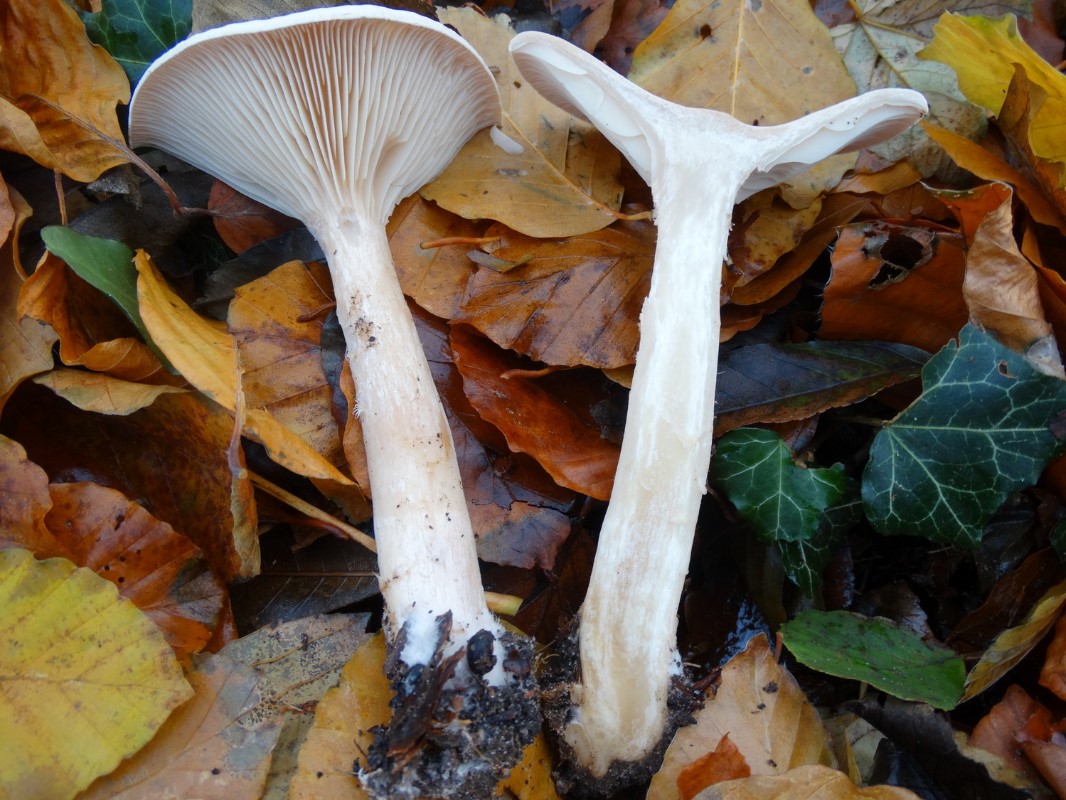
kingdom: Fungi
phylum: Basidiomycota
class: Agaricomycetes
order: Agaricales
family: Tricholomataceae
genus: Infundibulicybe
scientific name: Infundibulicybe geotropa
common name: stor tragthat
